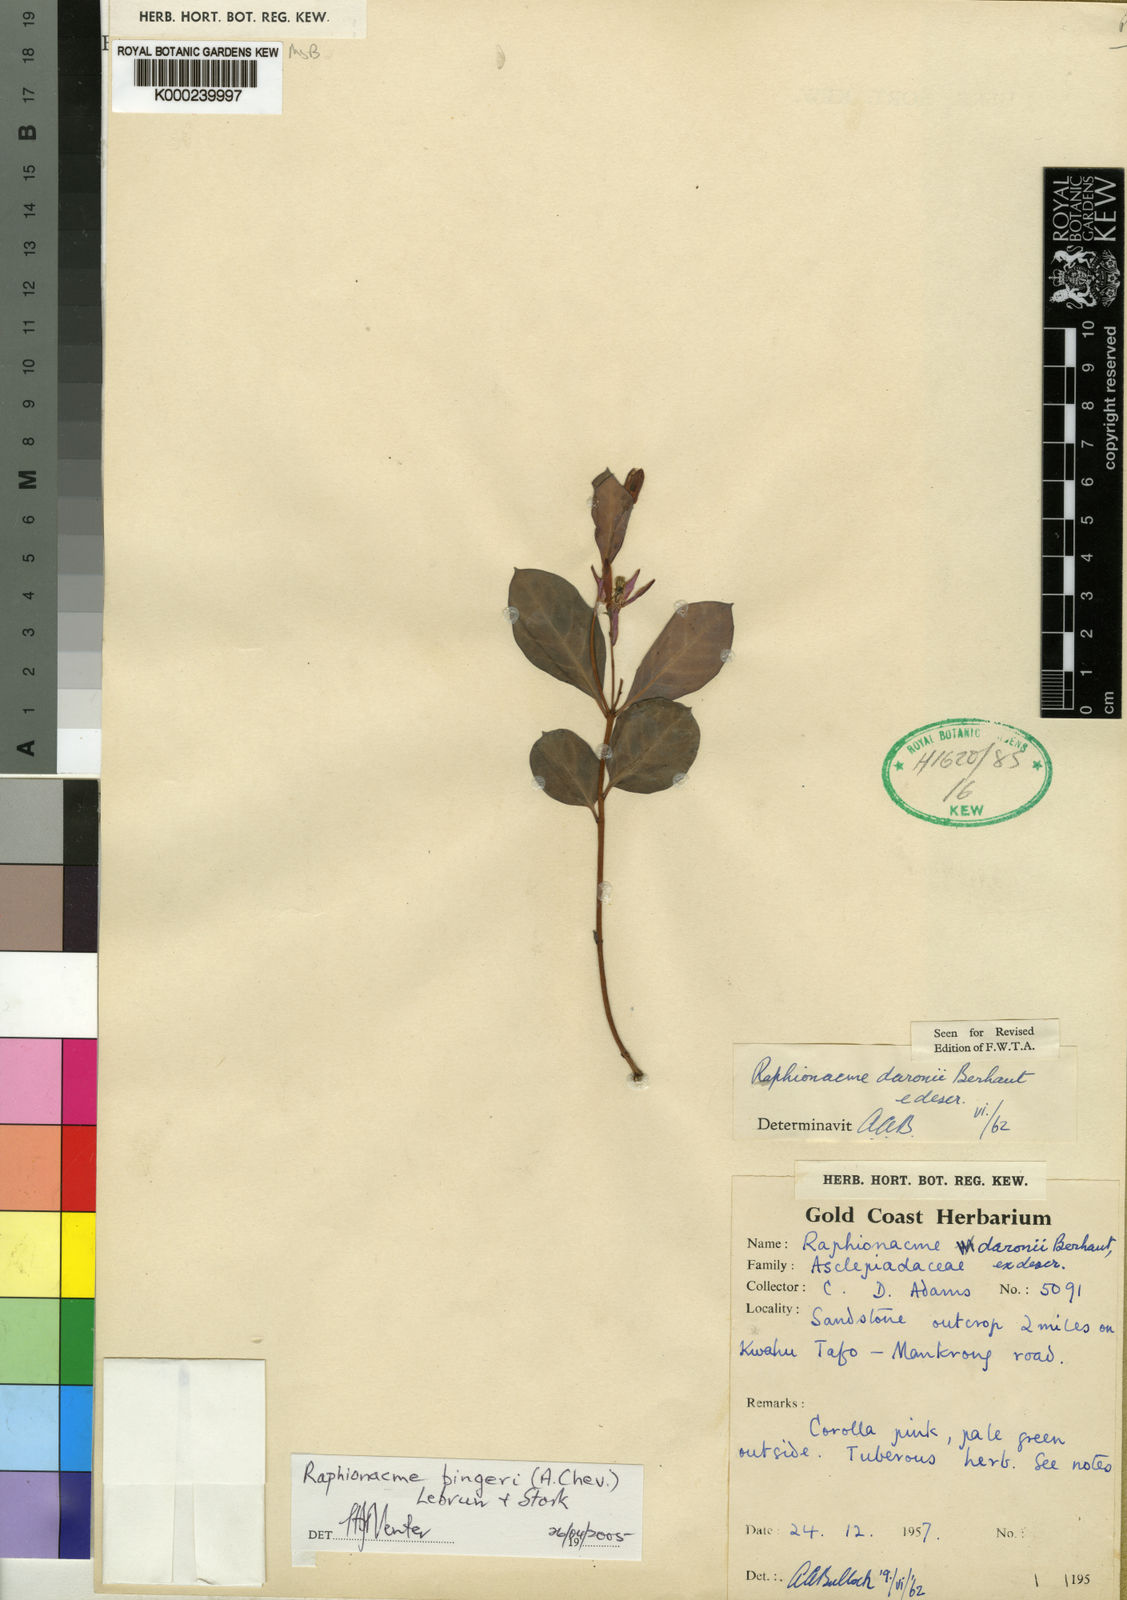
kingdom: Plantae
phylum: Tracheophyta
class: Magnoliopsida
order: Gentianales
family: Apocynaceae
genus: Raphionacme
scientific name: Raphionacme splendens
